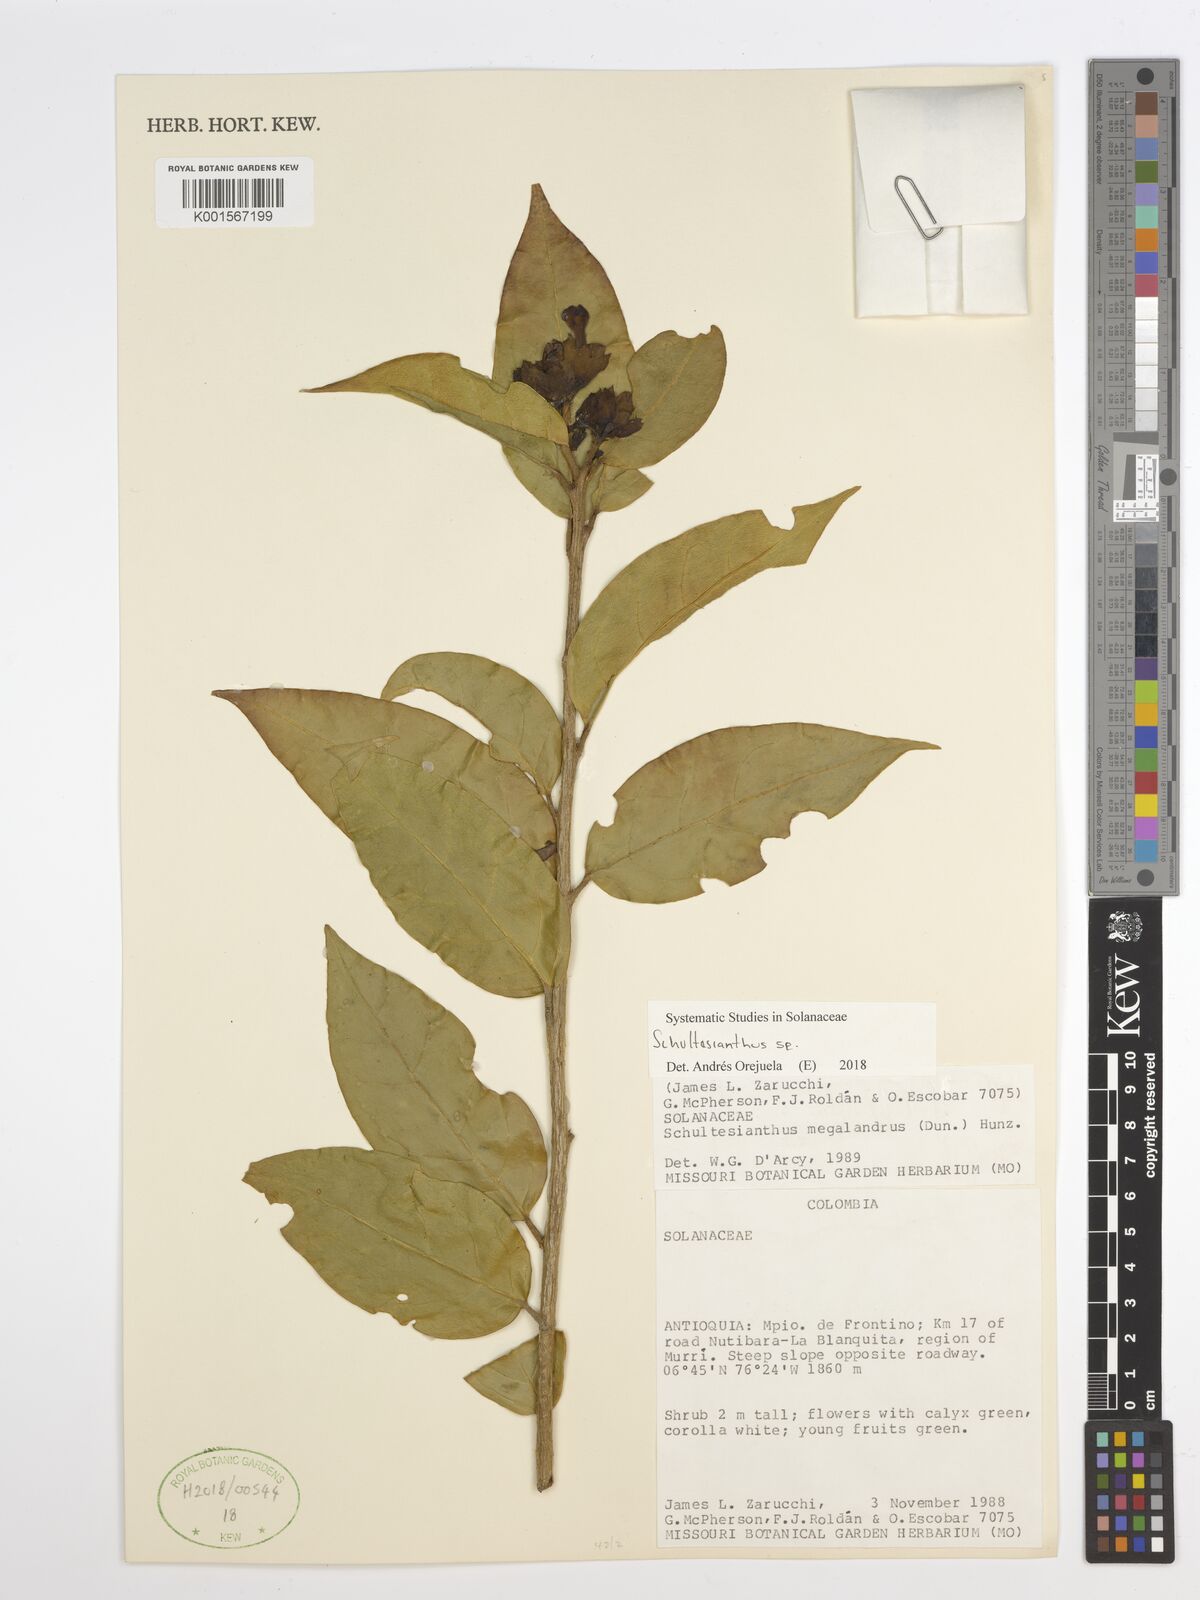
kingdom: Plantae
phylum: Tracheophyta
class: Magnoliopsida
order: Solanales
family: Solanaceae
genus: Schultesianthus
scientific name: Schultesianthus
